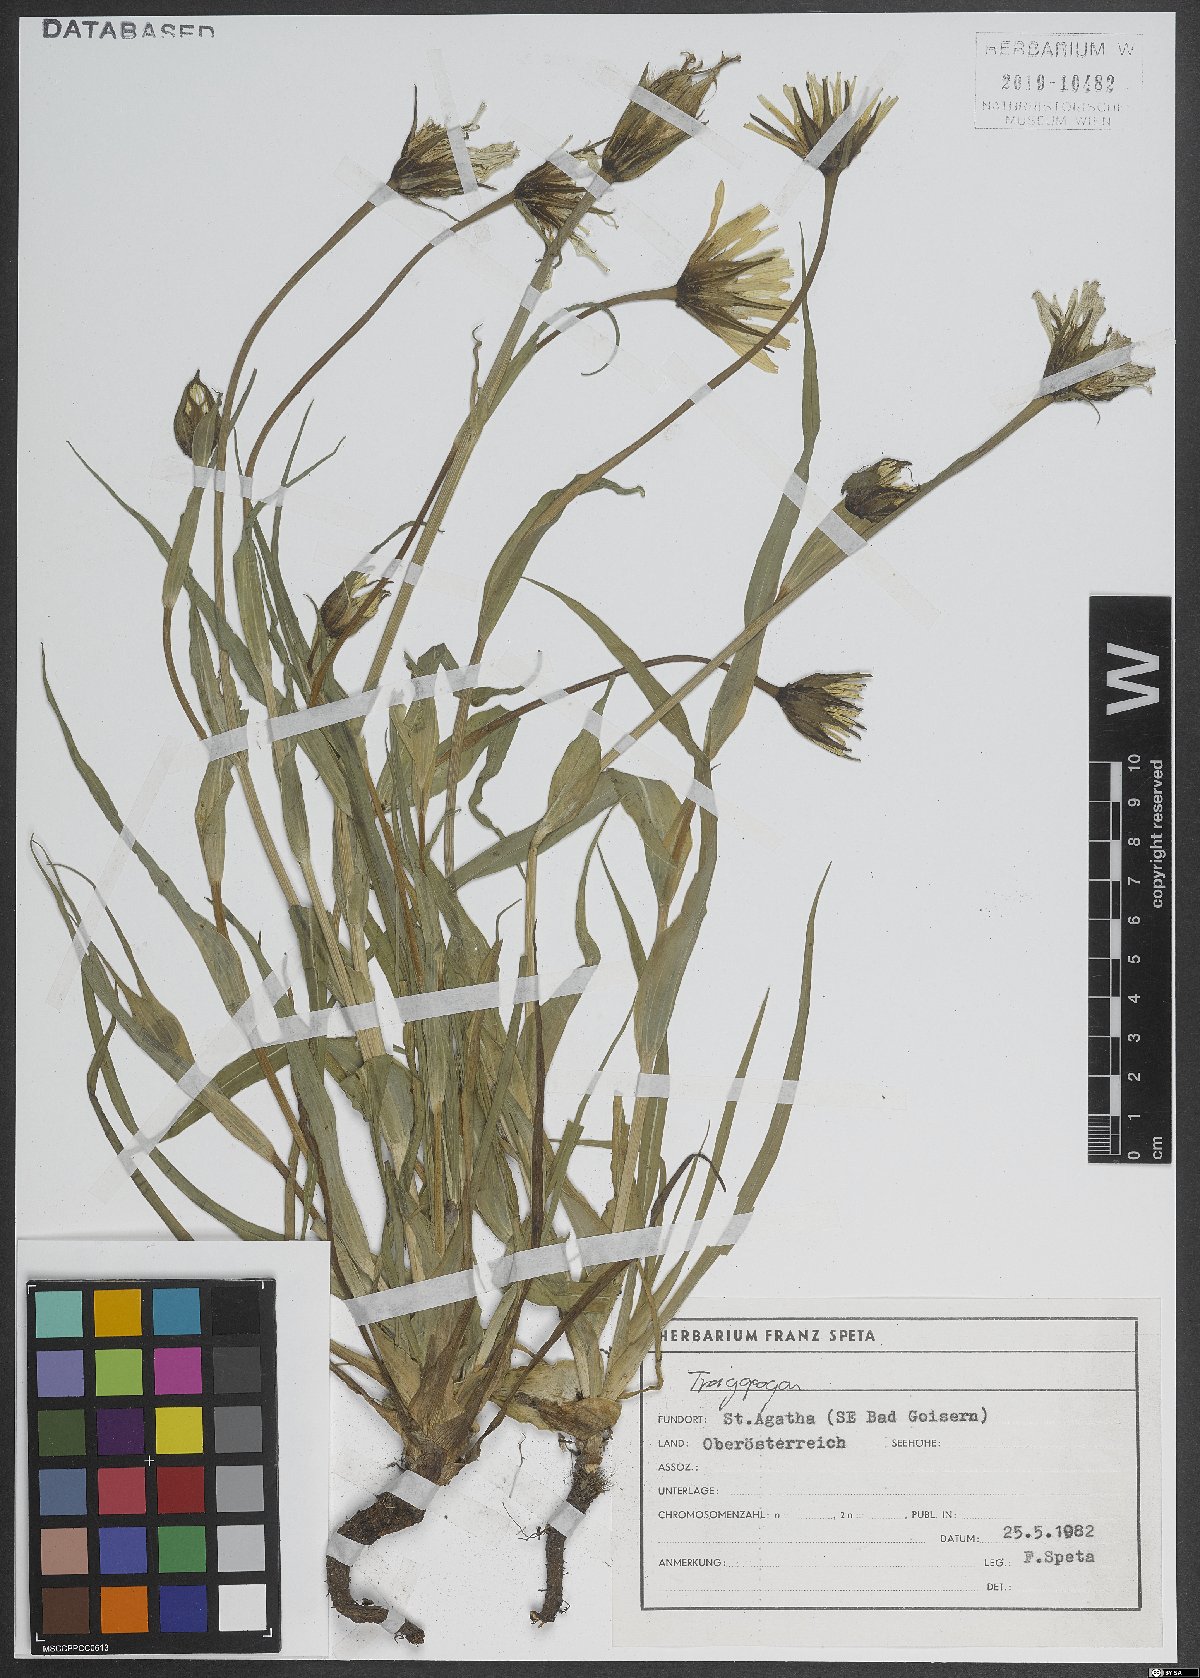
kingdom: Plantae
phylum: Tracheophyta
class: Magnoliopsida
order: Asterales
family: Asteraceae
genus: Tragopogon
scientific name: Tragopogon
